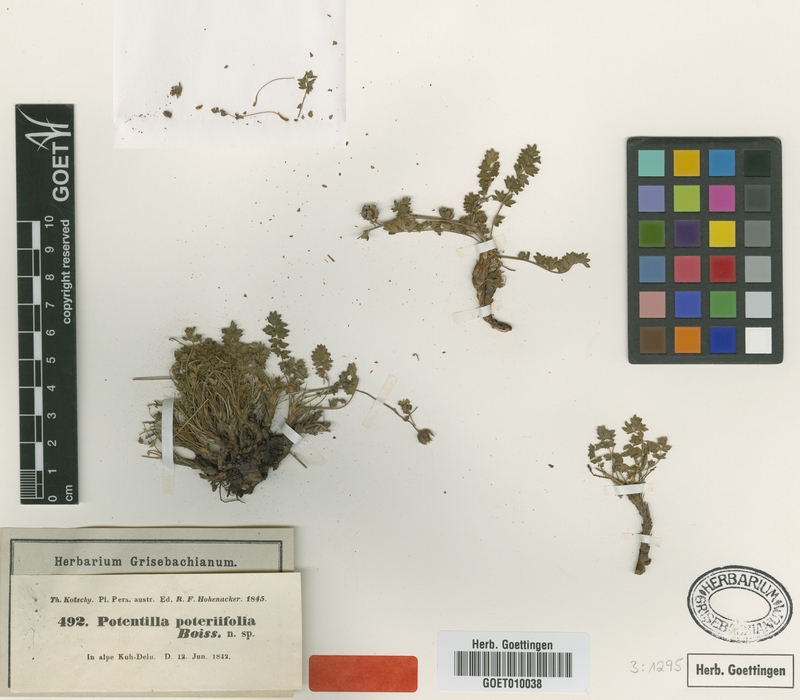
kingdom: Plantae
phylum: Tracheophyta
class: Magnoliopsida
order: Rosales
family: Rosaceae
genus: Drymocallis
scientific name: Drymocallis poteriifolia
